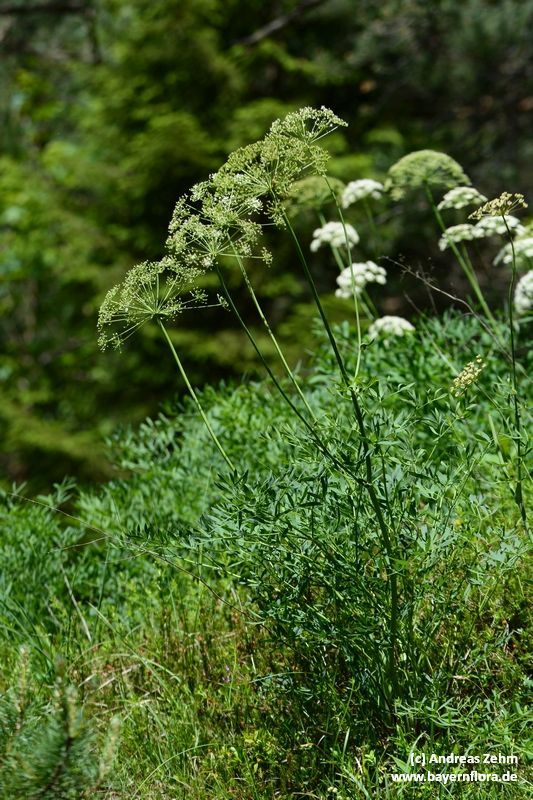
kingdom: Plantae
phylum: Tracheophyta
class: Magnoliopsida
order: Apiales
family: Apiaceae
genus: Siler
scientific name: Siler montanum
